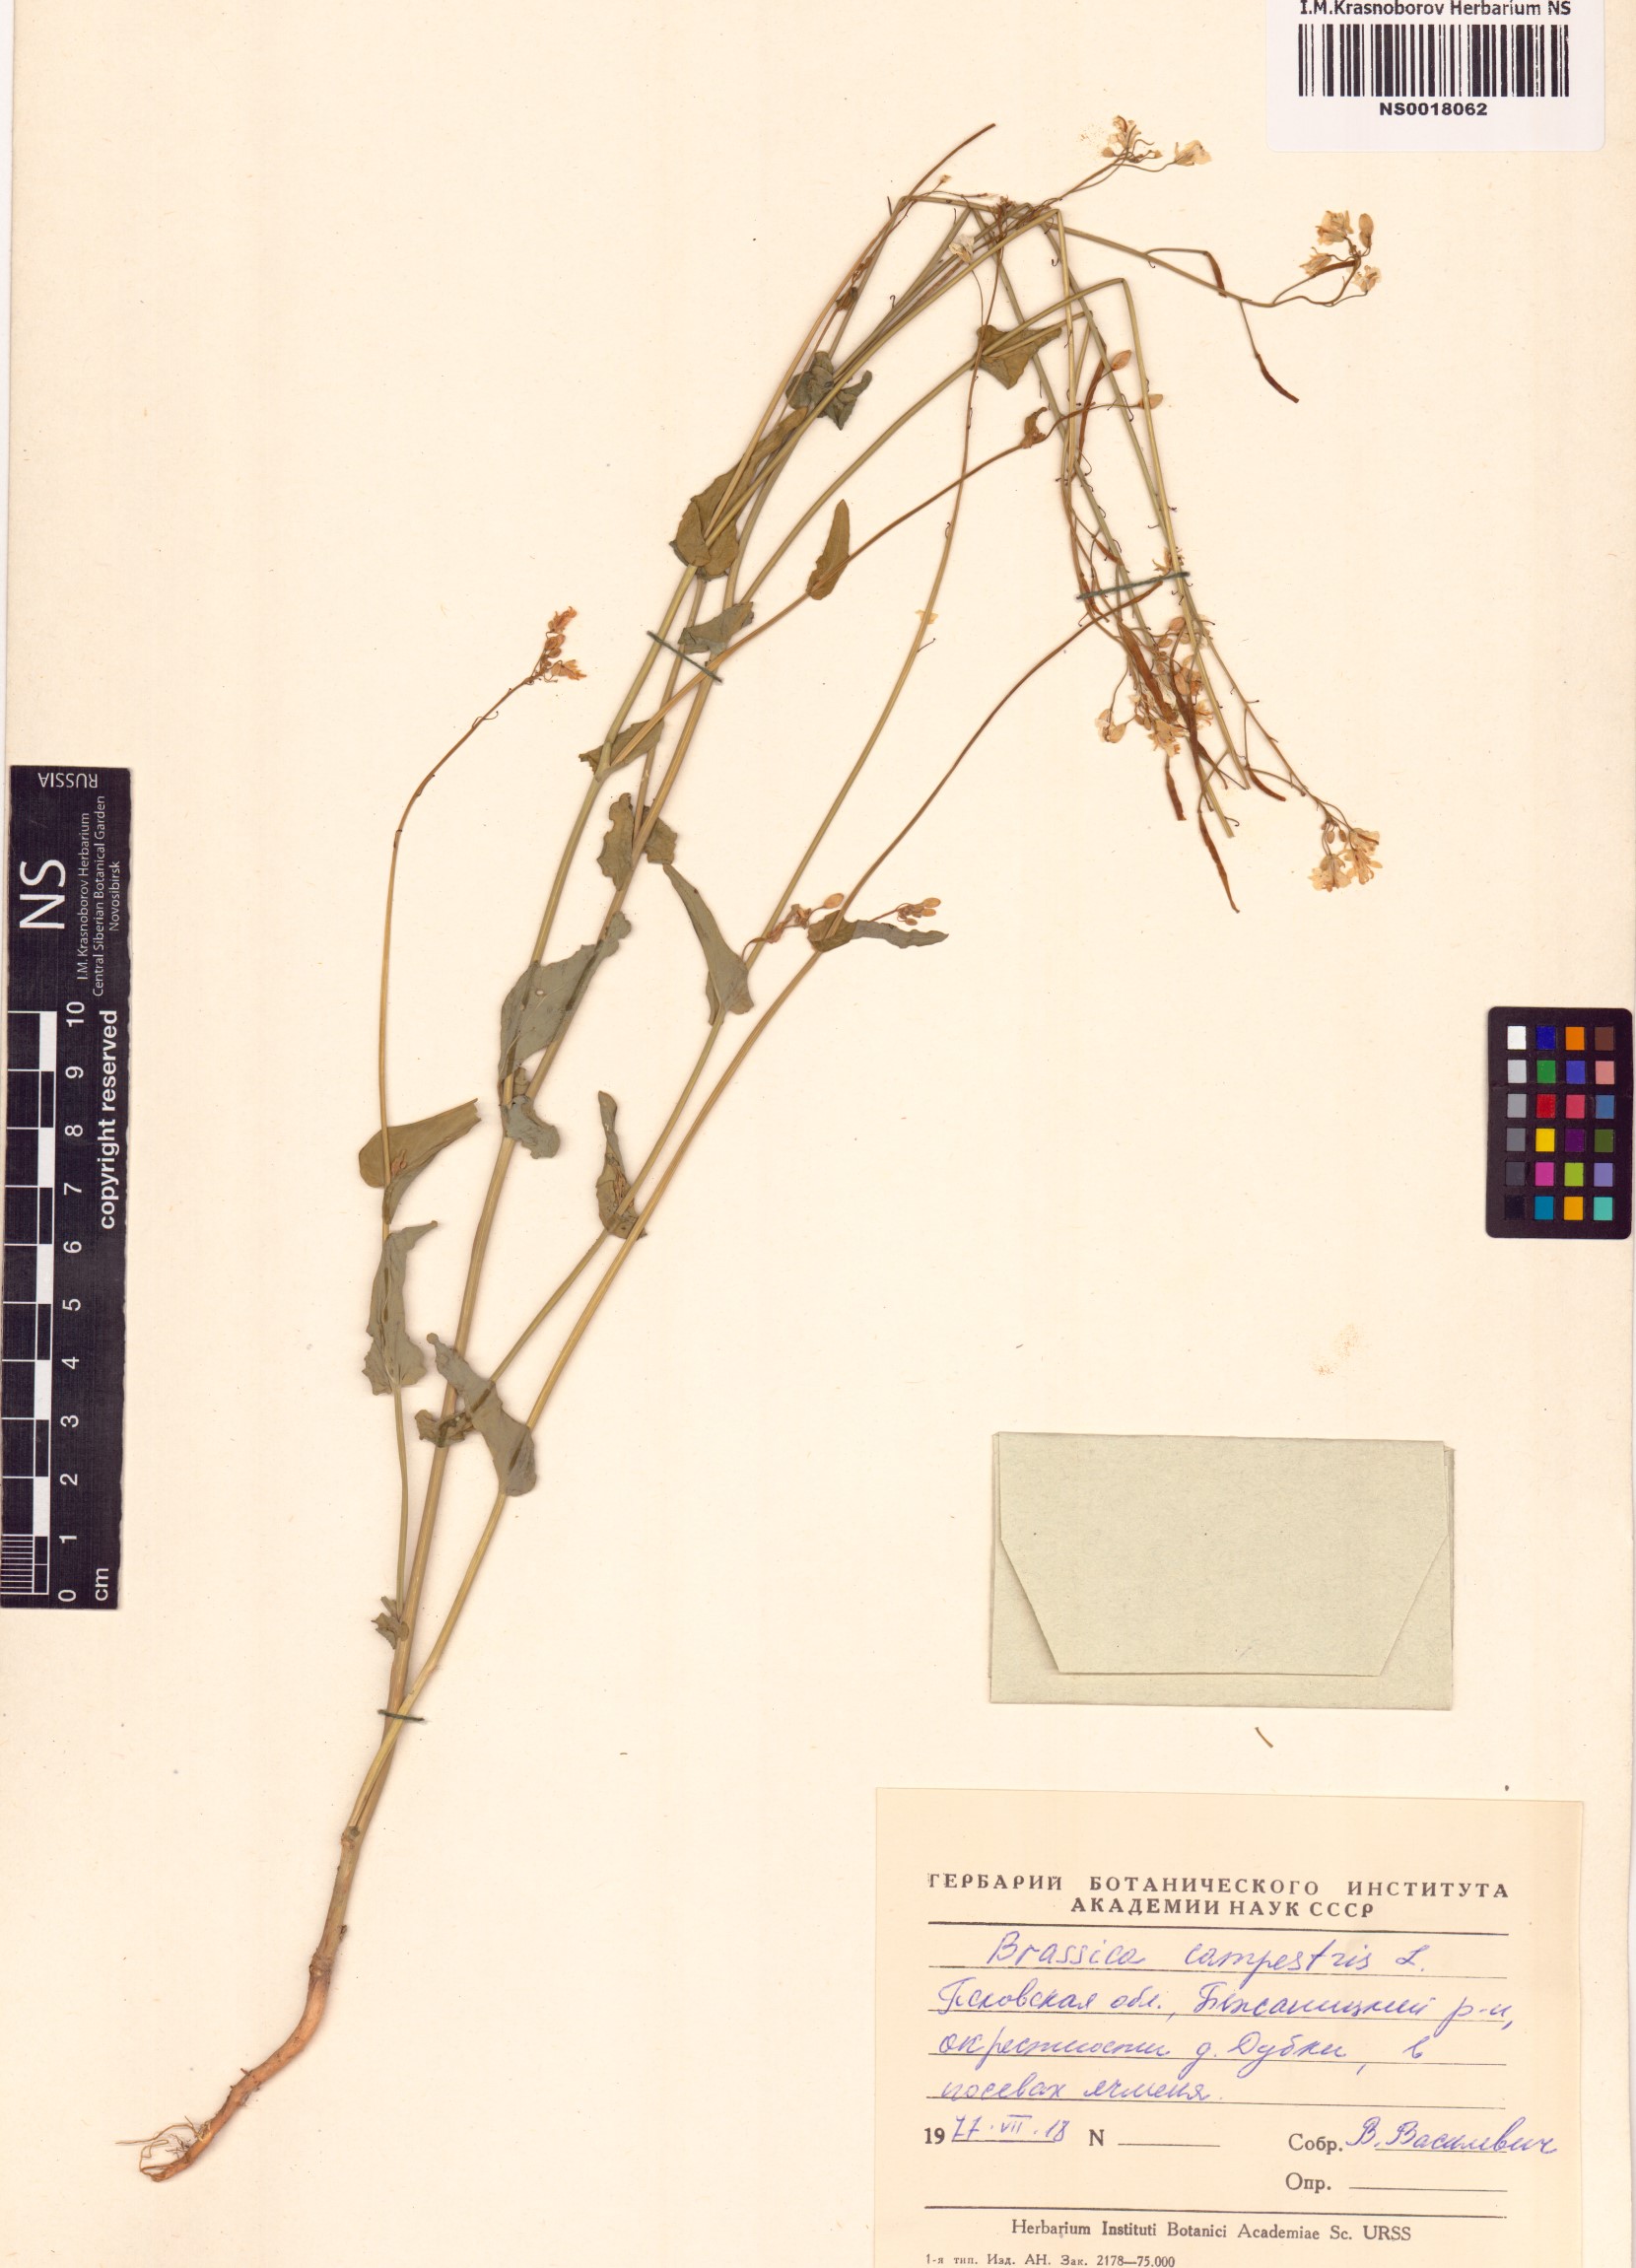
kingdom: Plantae
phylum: Tracheophyta
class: Magnoliopsida
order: Brassicales
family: Brassicaceae
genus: Brassica
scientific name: Brassica rapa
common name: Field mustard
